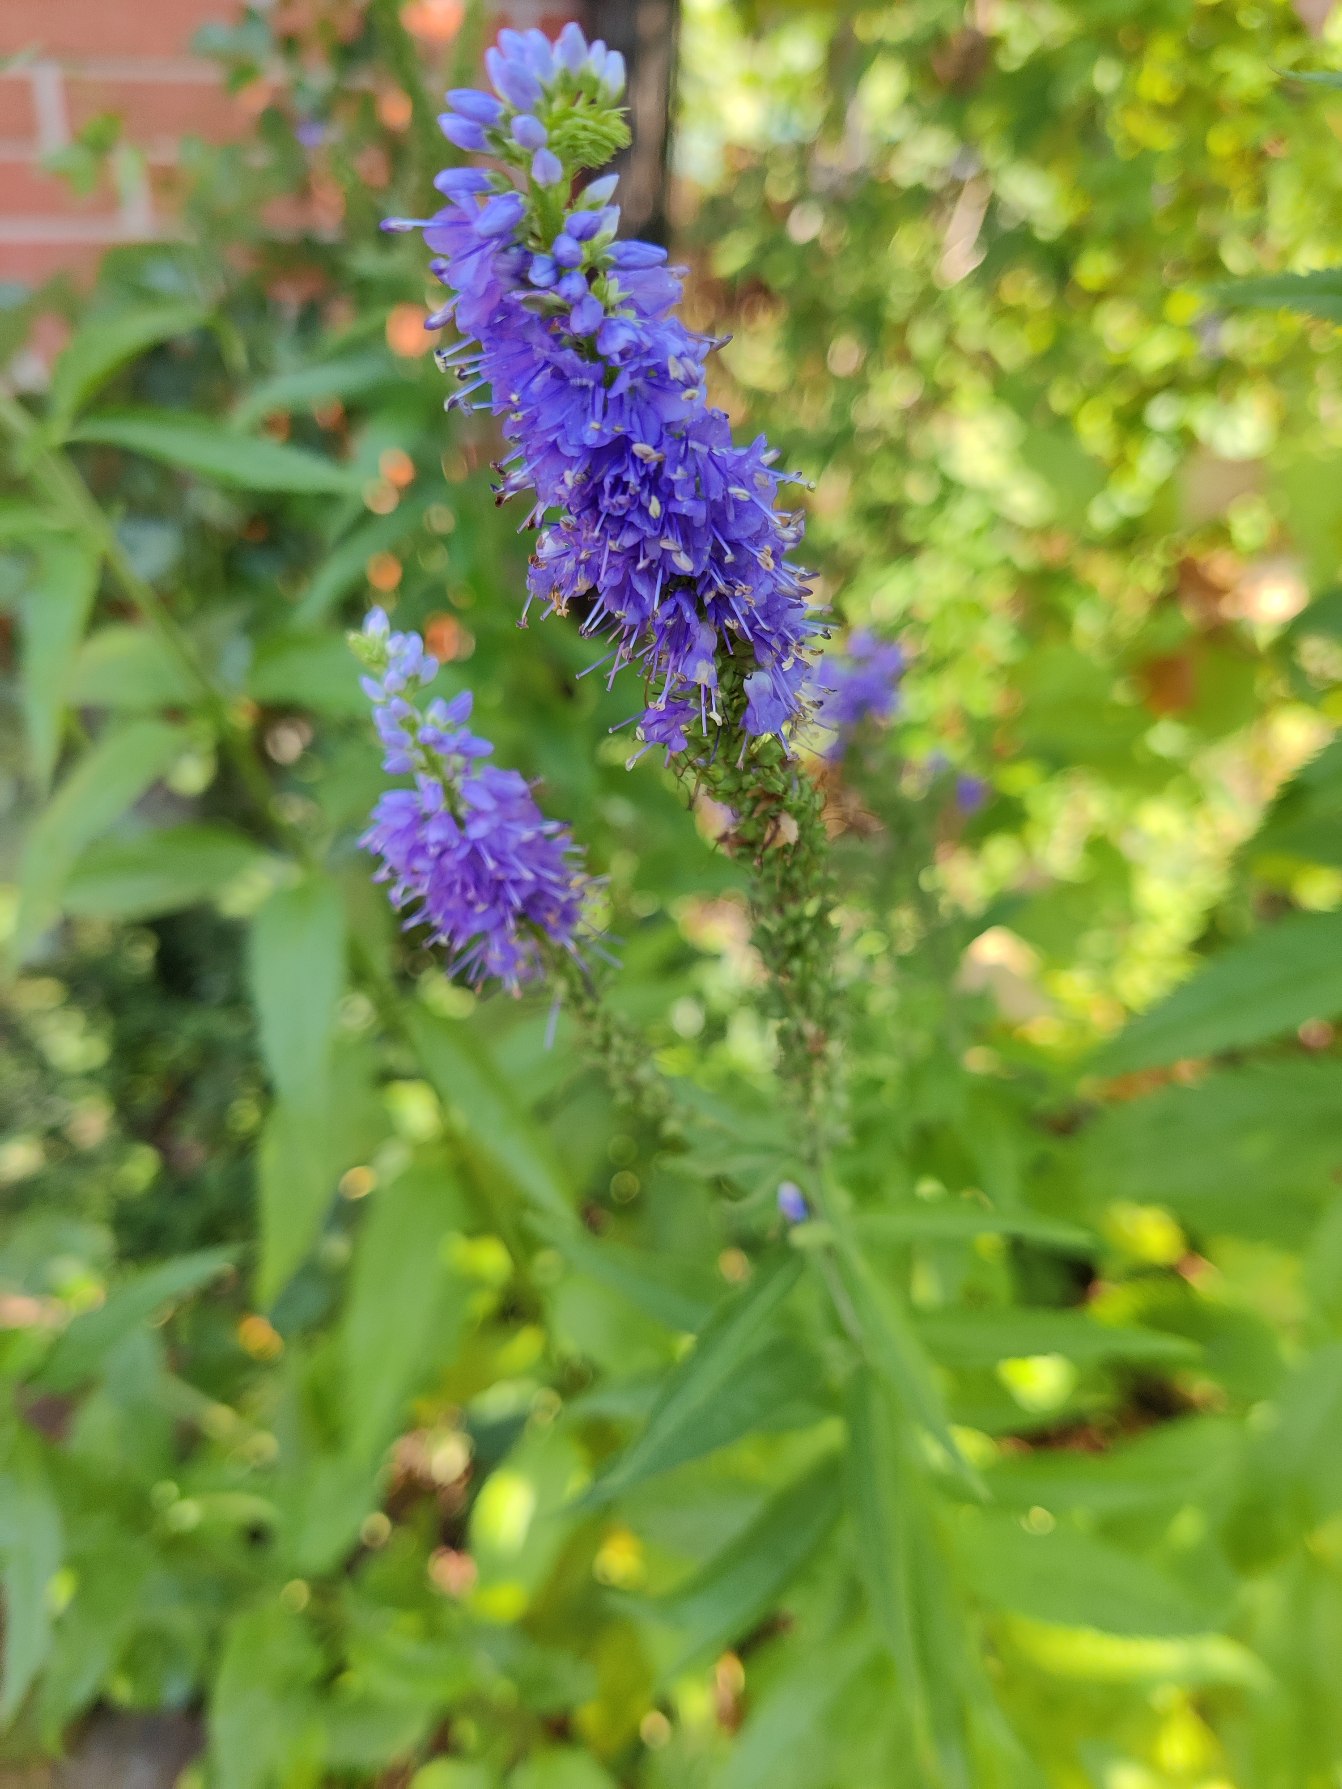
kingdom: Plantae
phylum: Tracheophyta
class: Magnoliopsida
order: Lamiales
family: Plantaginaceae
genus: Veronica
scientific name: Veronica longifolia
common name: Langbladet ærenpris
